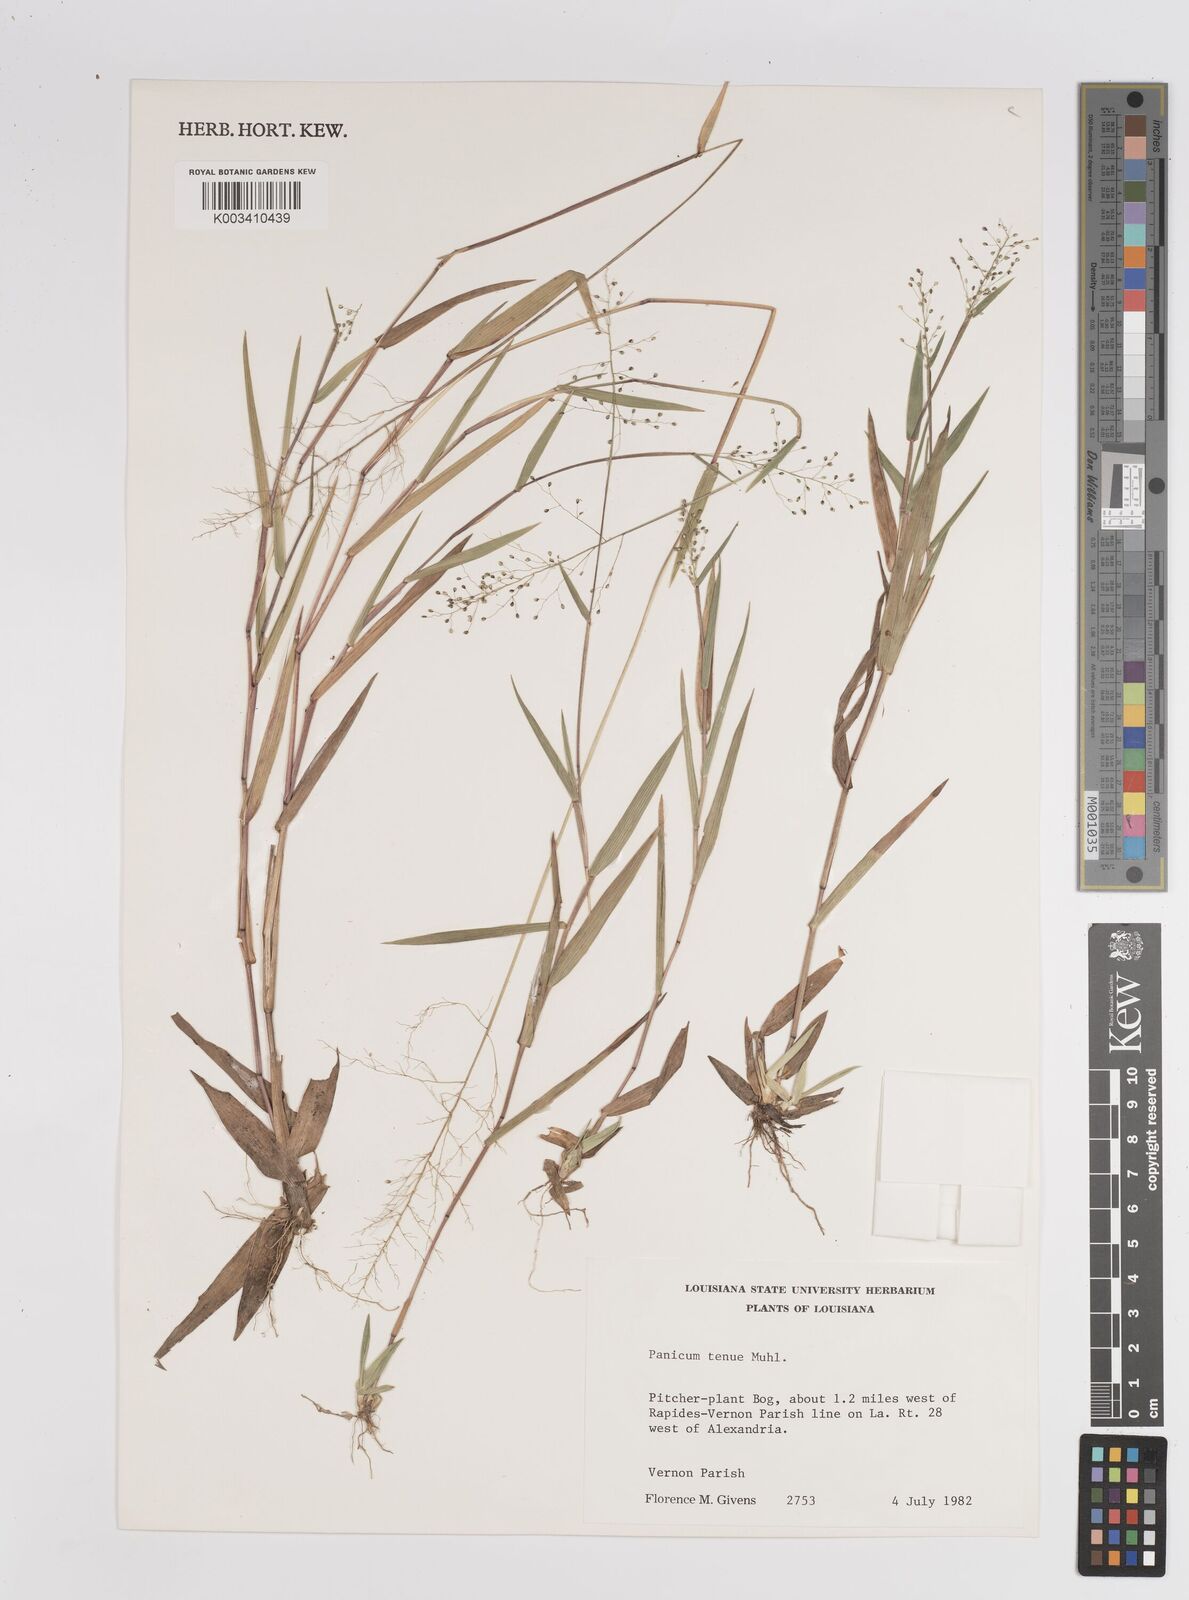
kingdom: Plantae
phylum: Tracheophyta
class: Liliopsida
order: Poales
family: Poaceae
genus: Dichanthelium
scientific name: Dichanthelium ensifolium
